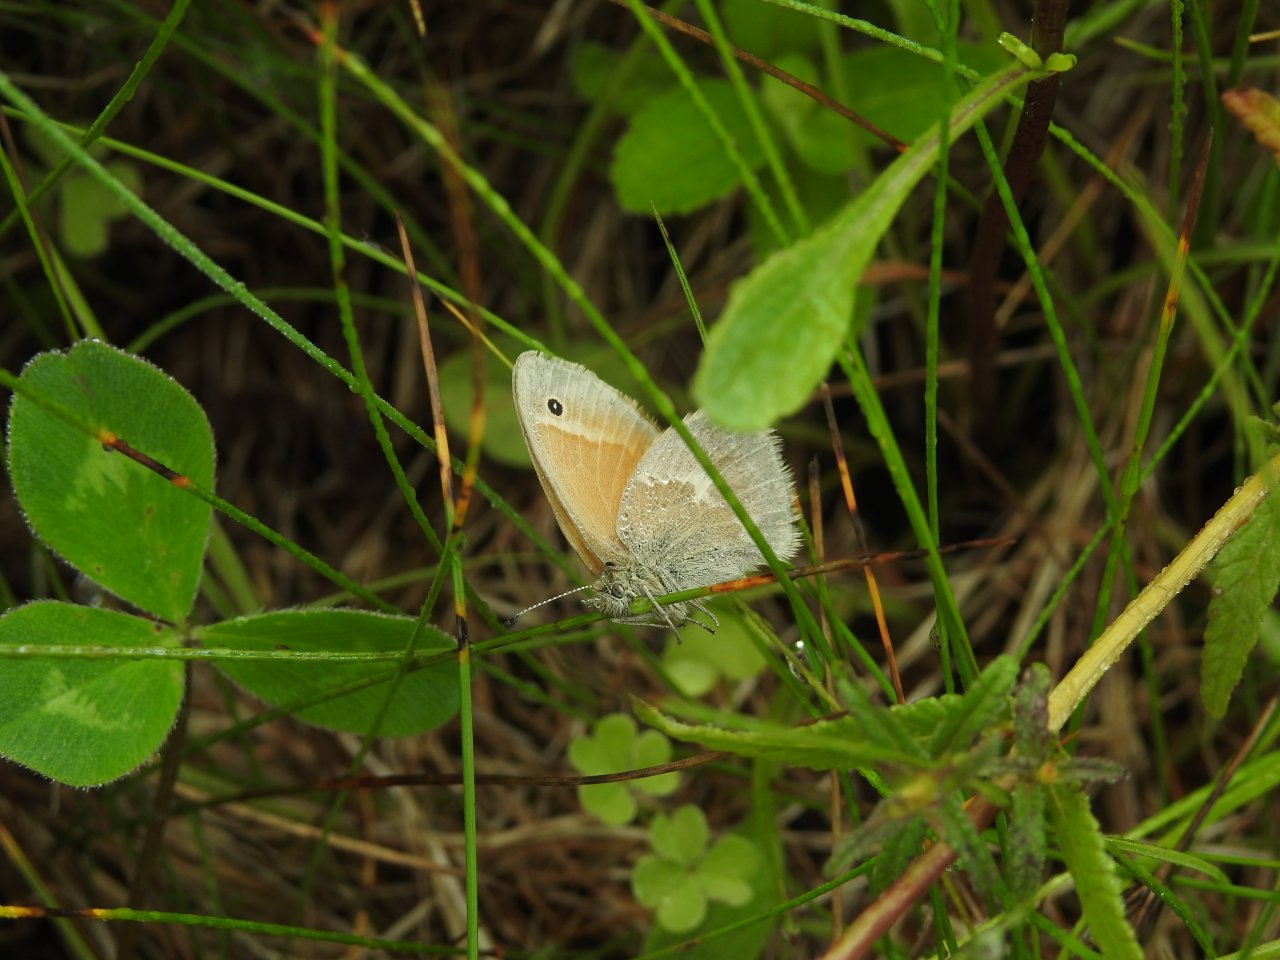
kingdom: Animalia
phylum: Arthropoda
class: Insecta
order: Lepidoptera
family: Nymphalidae
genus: Coenonympha
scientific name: Coenonympha tullia
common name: Large Heath
